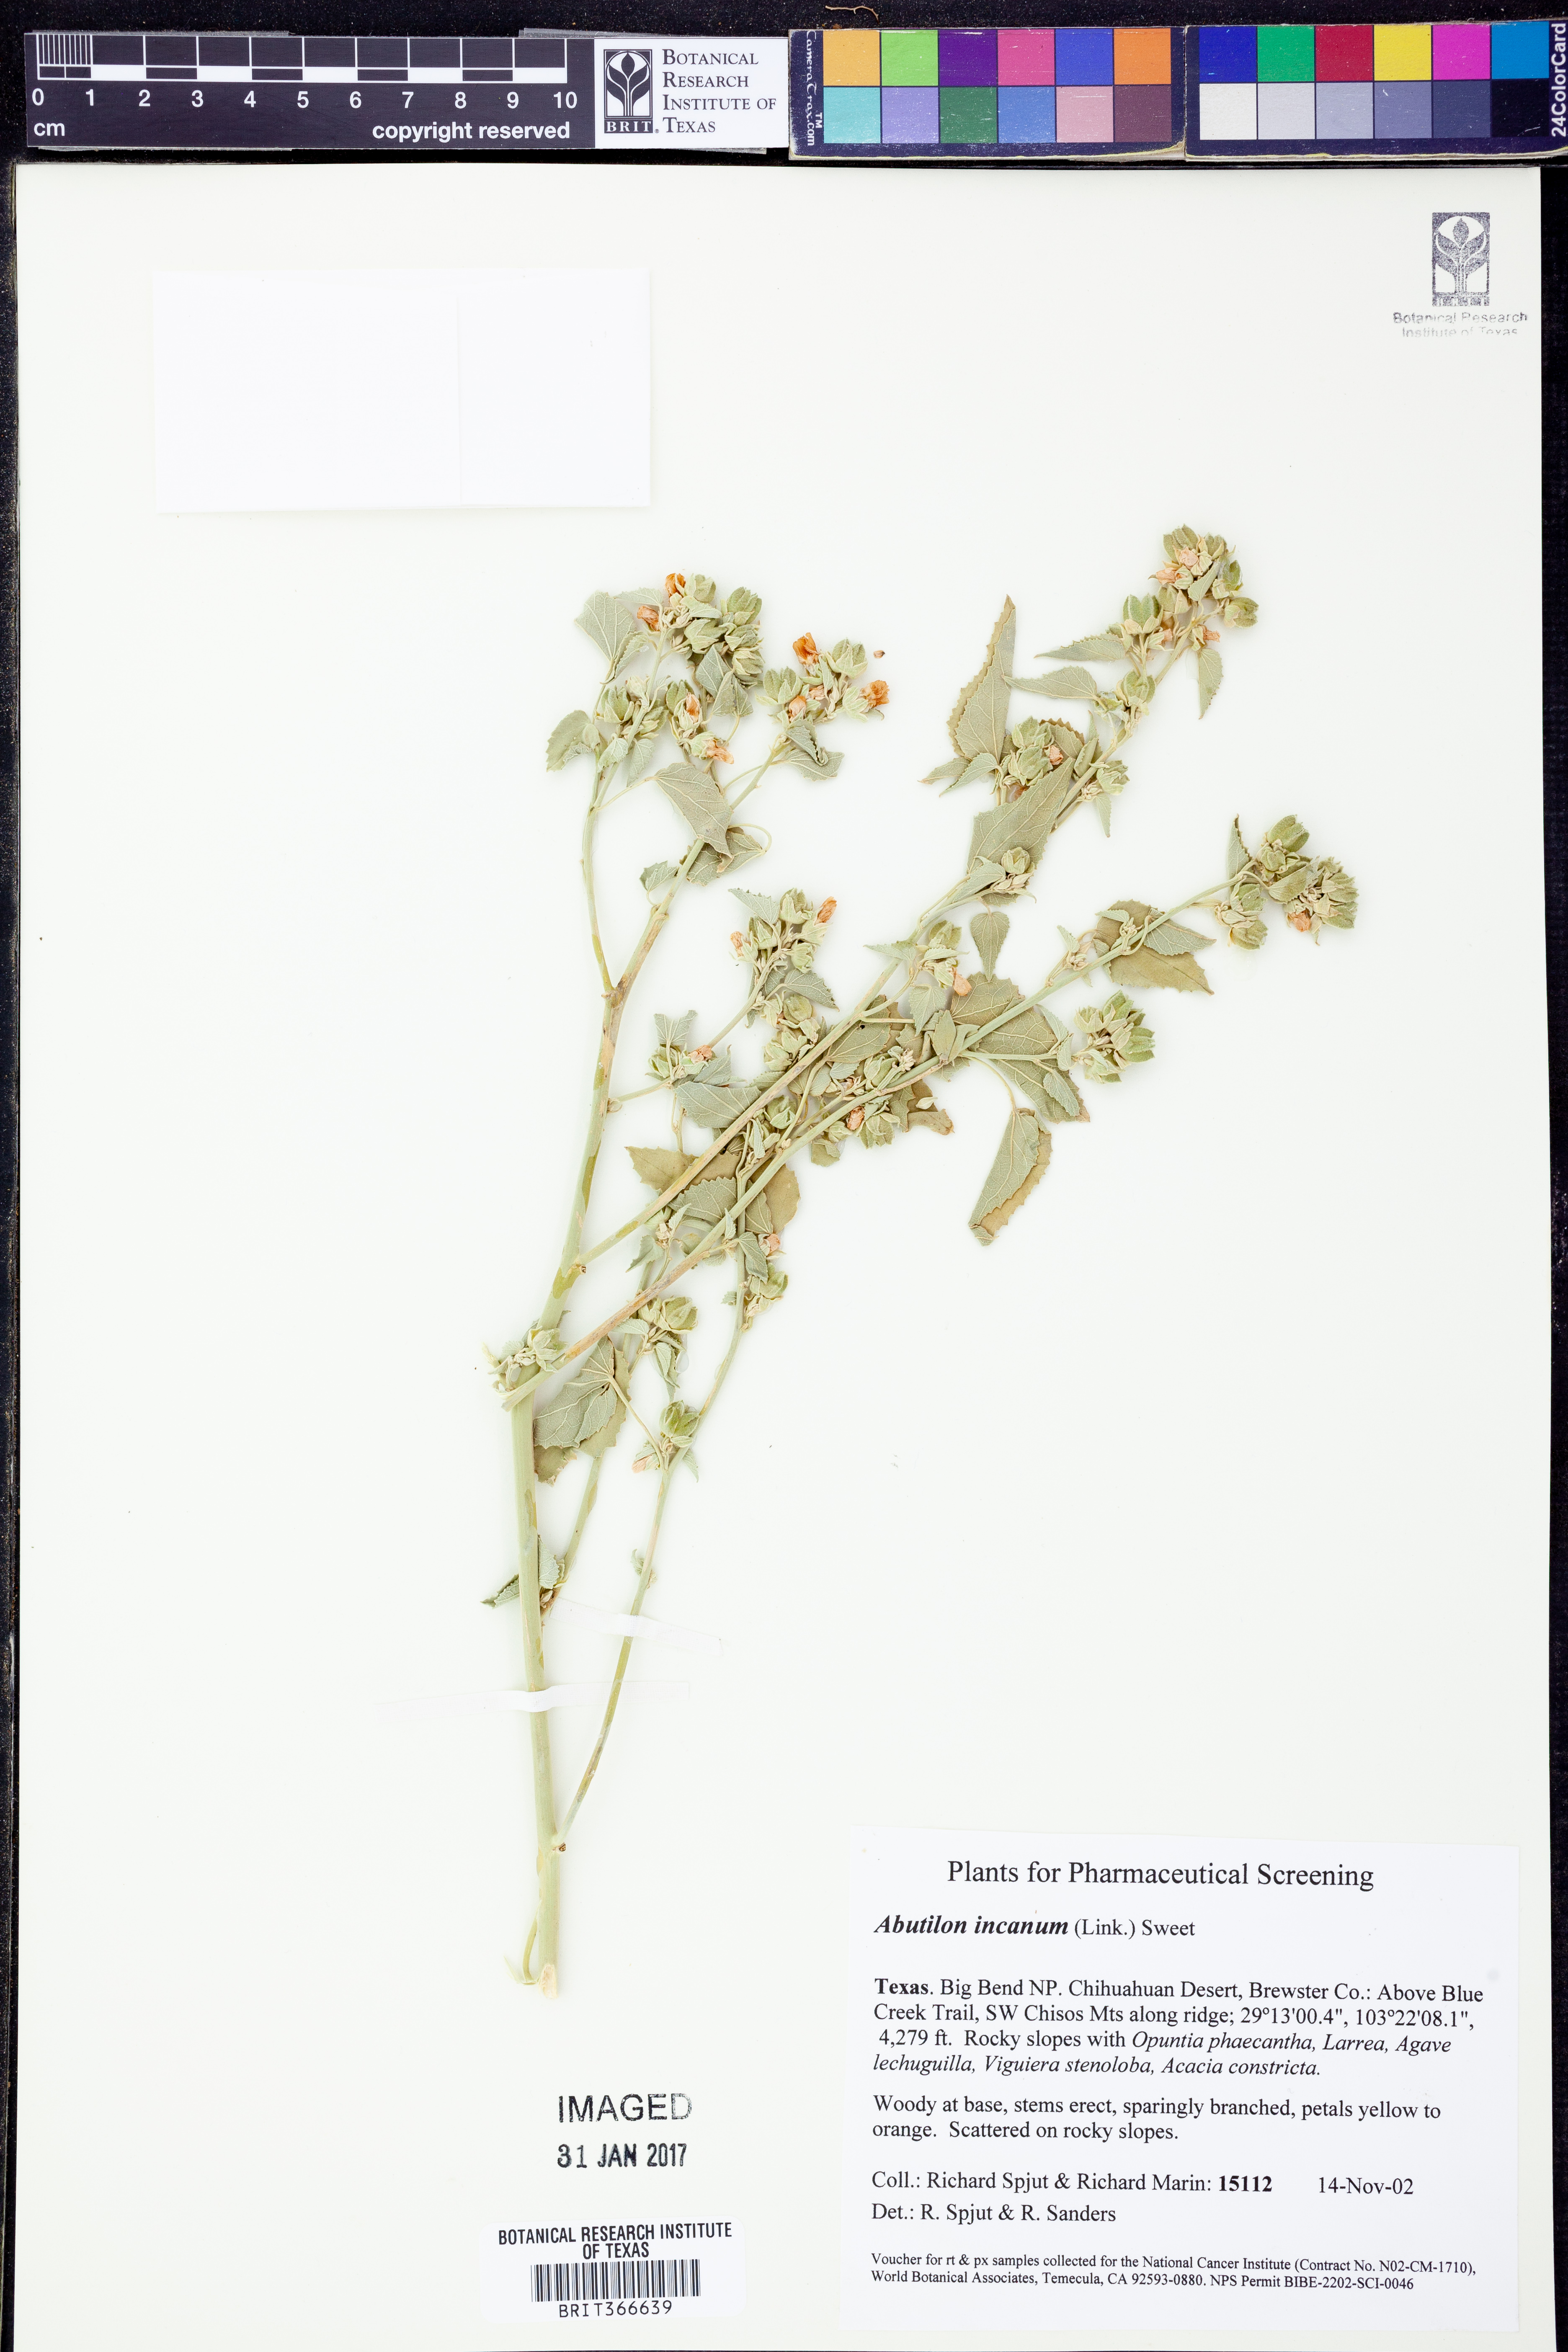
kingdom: Plantae
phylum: Tracheophyta
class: Magnoliopsida
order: Malvales
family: Malvaceae
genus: Abutilon
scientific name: Abutilon incanum
